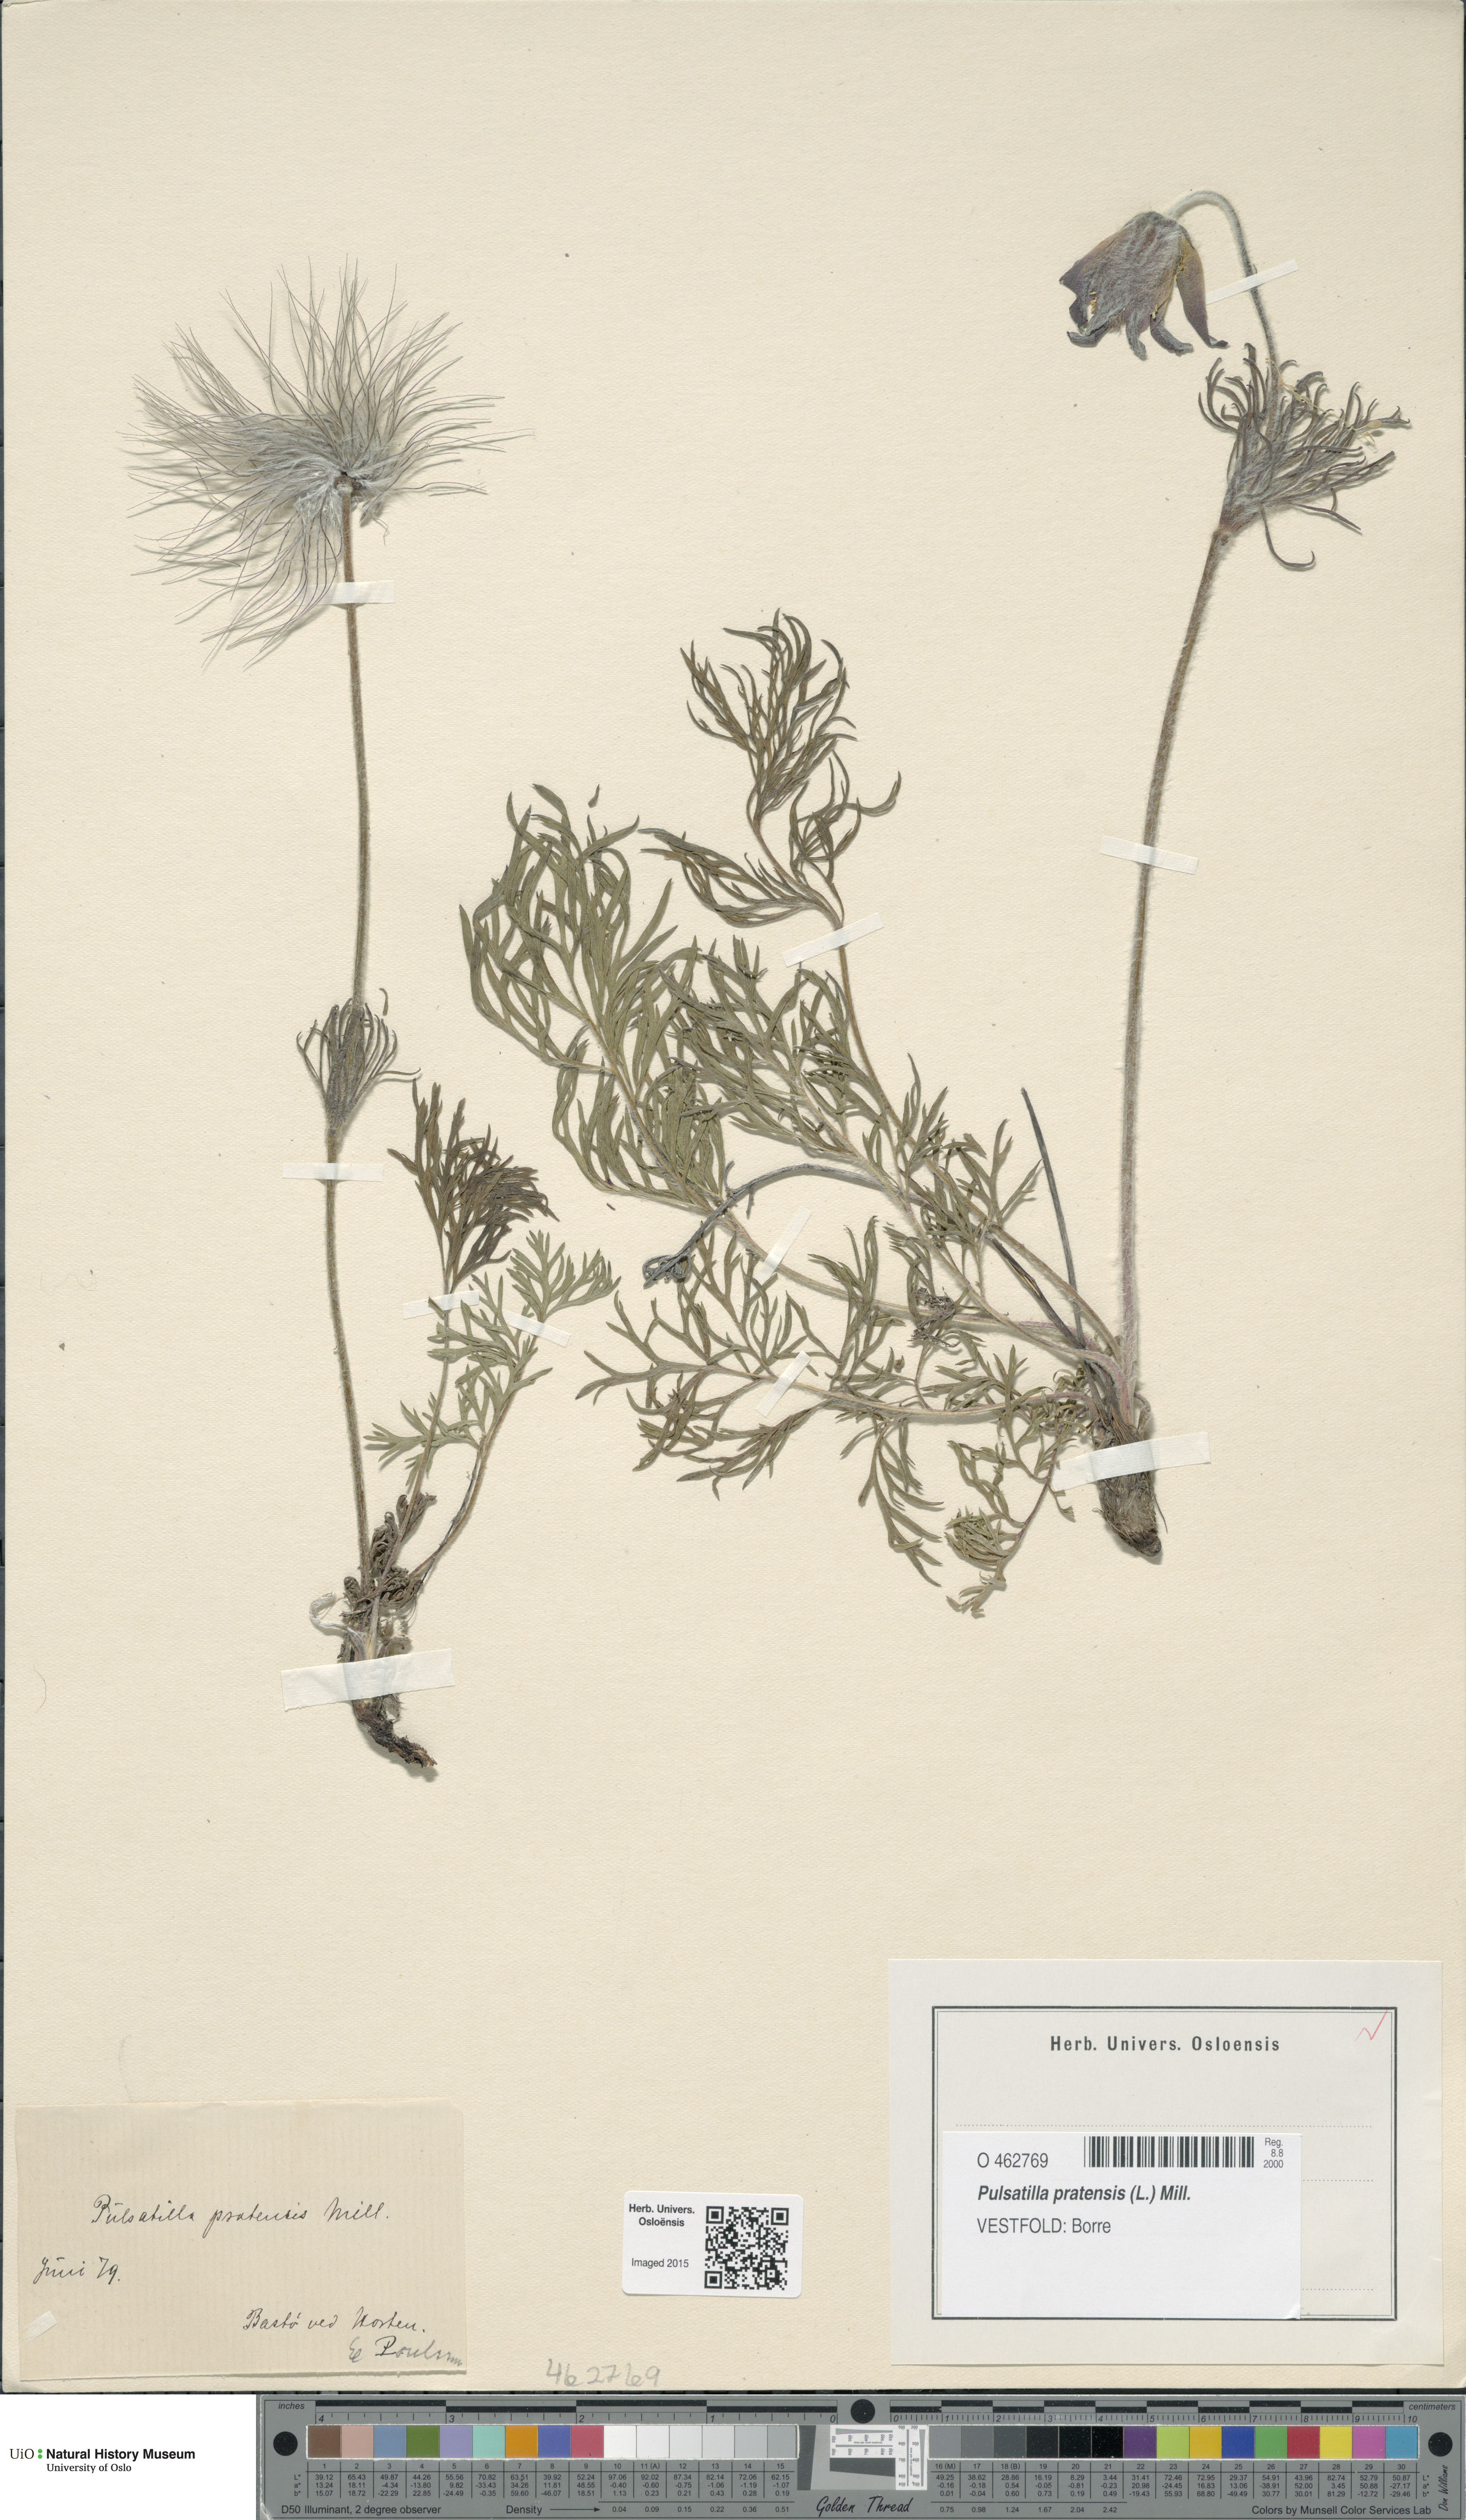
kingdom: Plantae
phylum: Tracheophyta
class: Magnoliopsida
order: Ranunculales
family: Ranunculaceae
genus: Pulsatilla
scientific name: Pulsatilla pratensis
